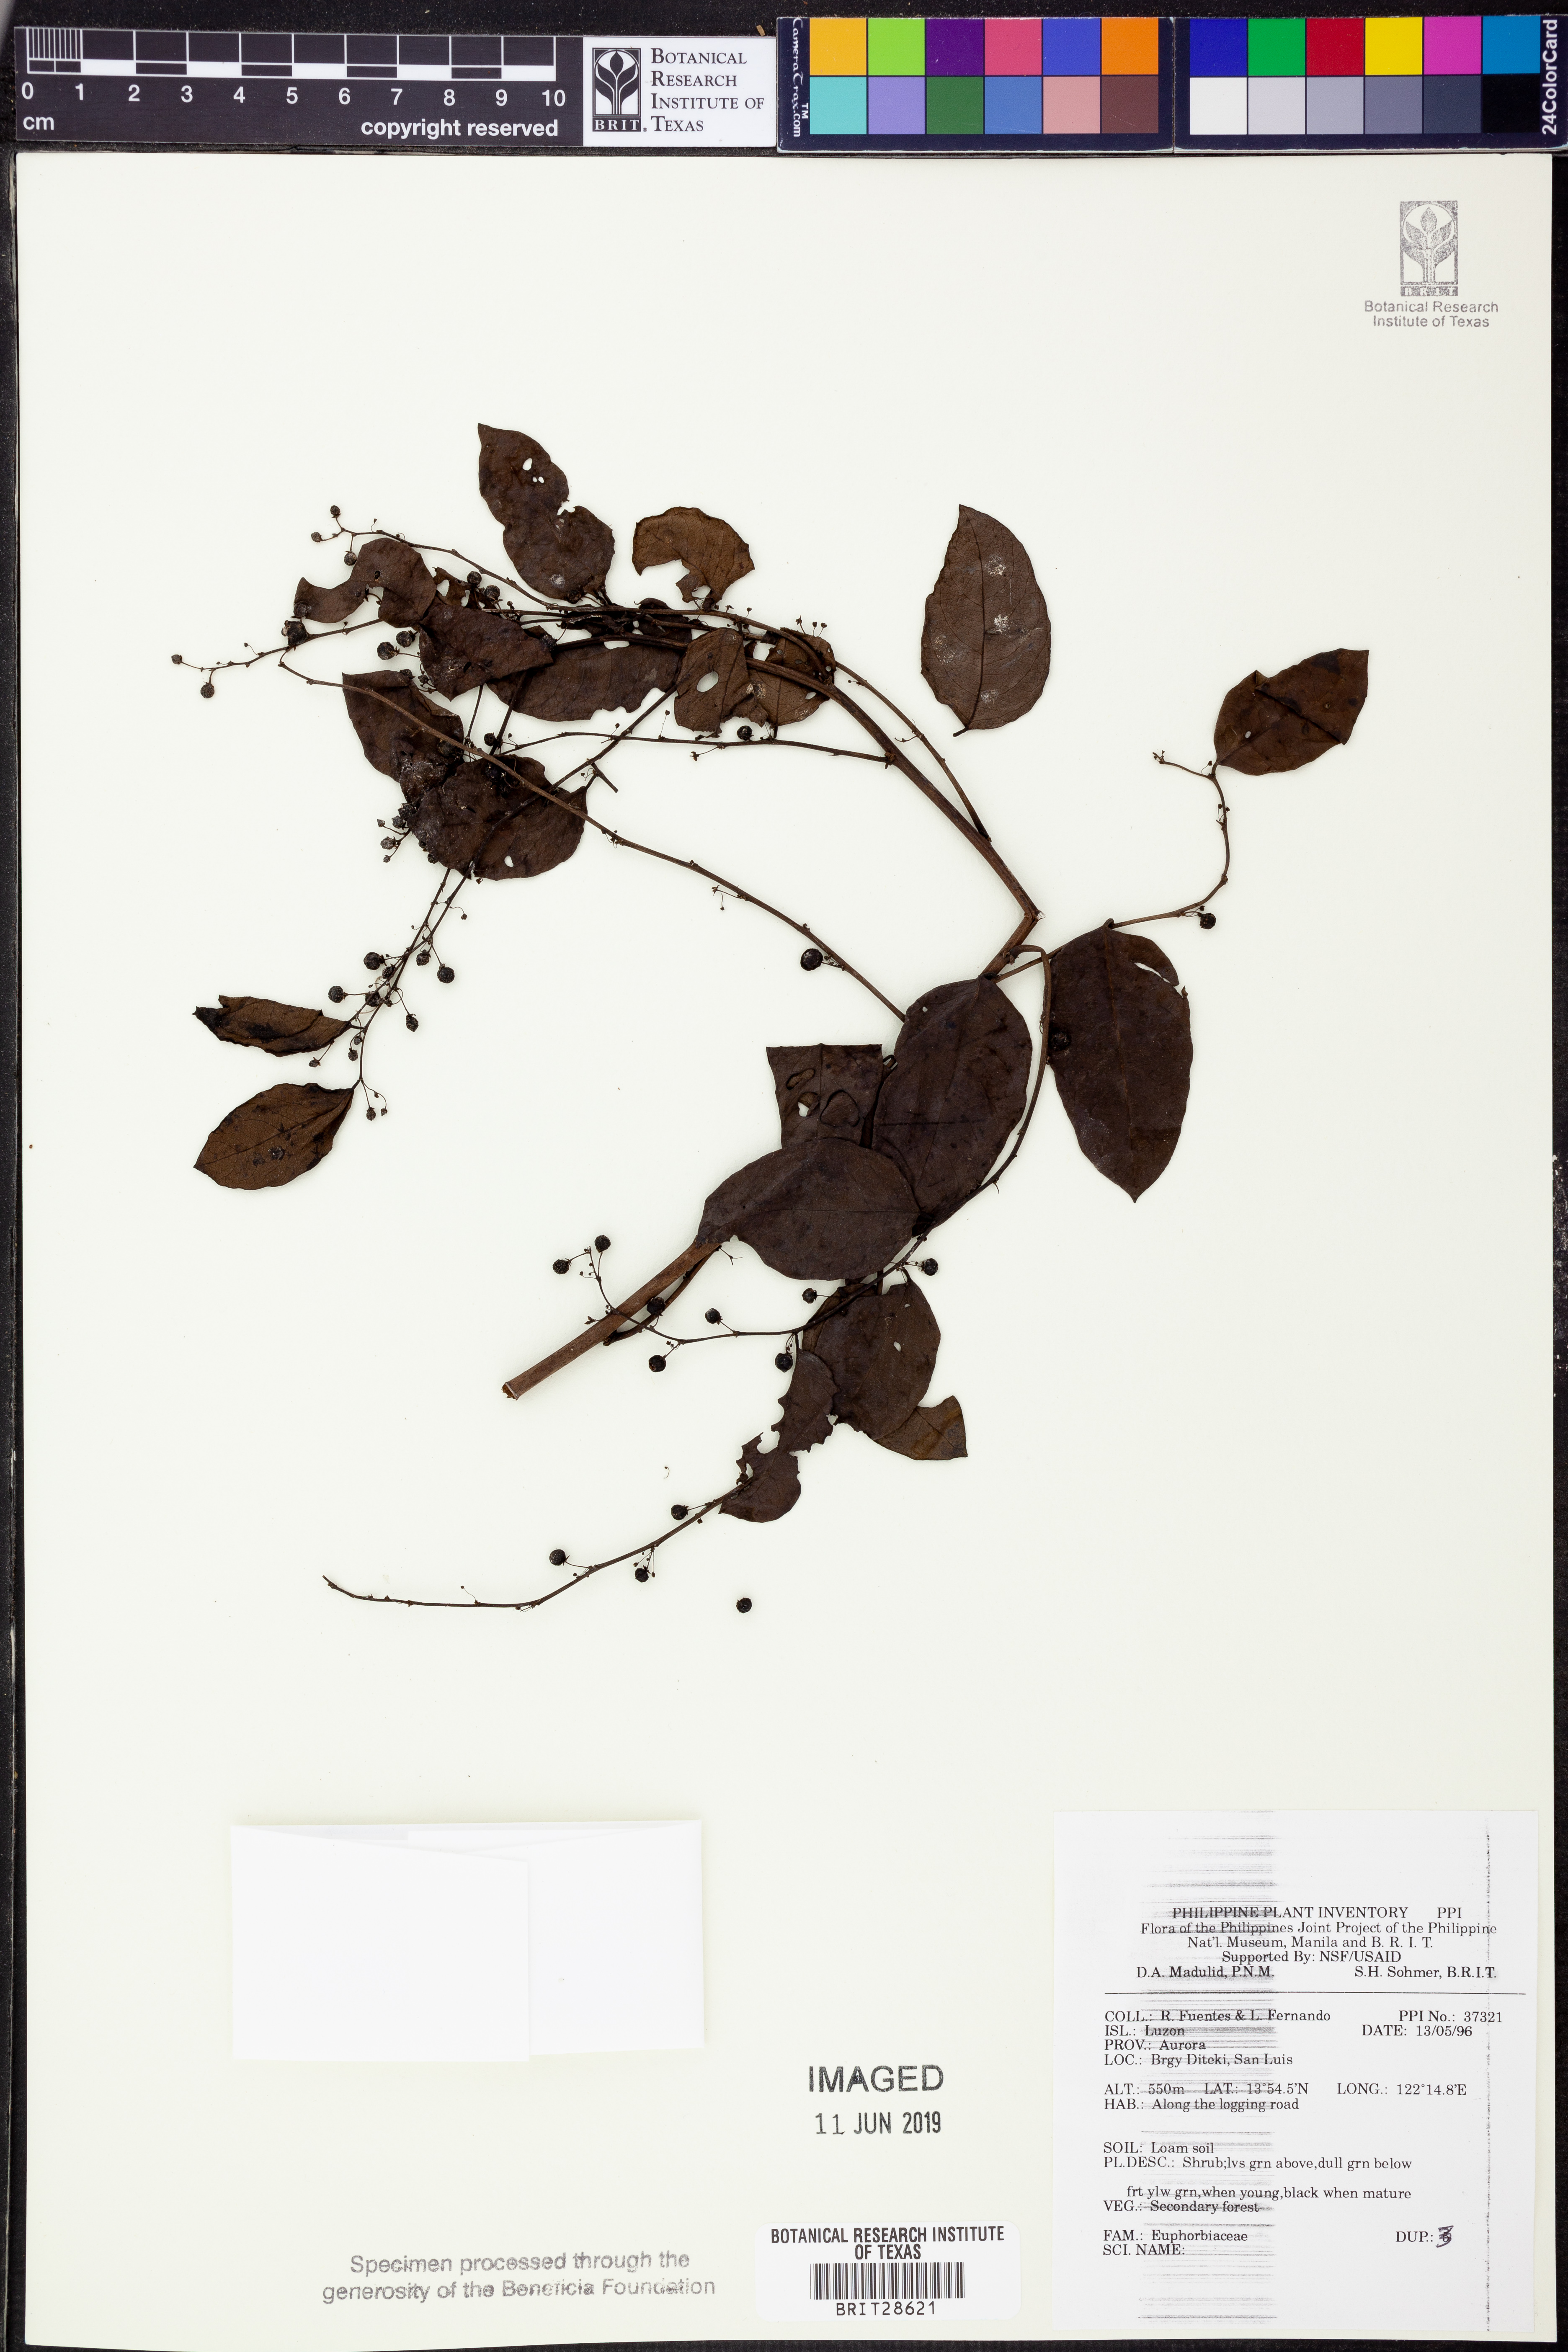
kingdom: Plantae
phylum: Tracheophyta
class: Magnoliopsida
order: Malpighiales
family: Euphorbiaceae
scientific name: Euphorbiaceae
